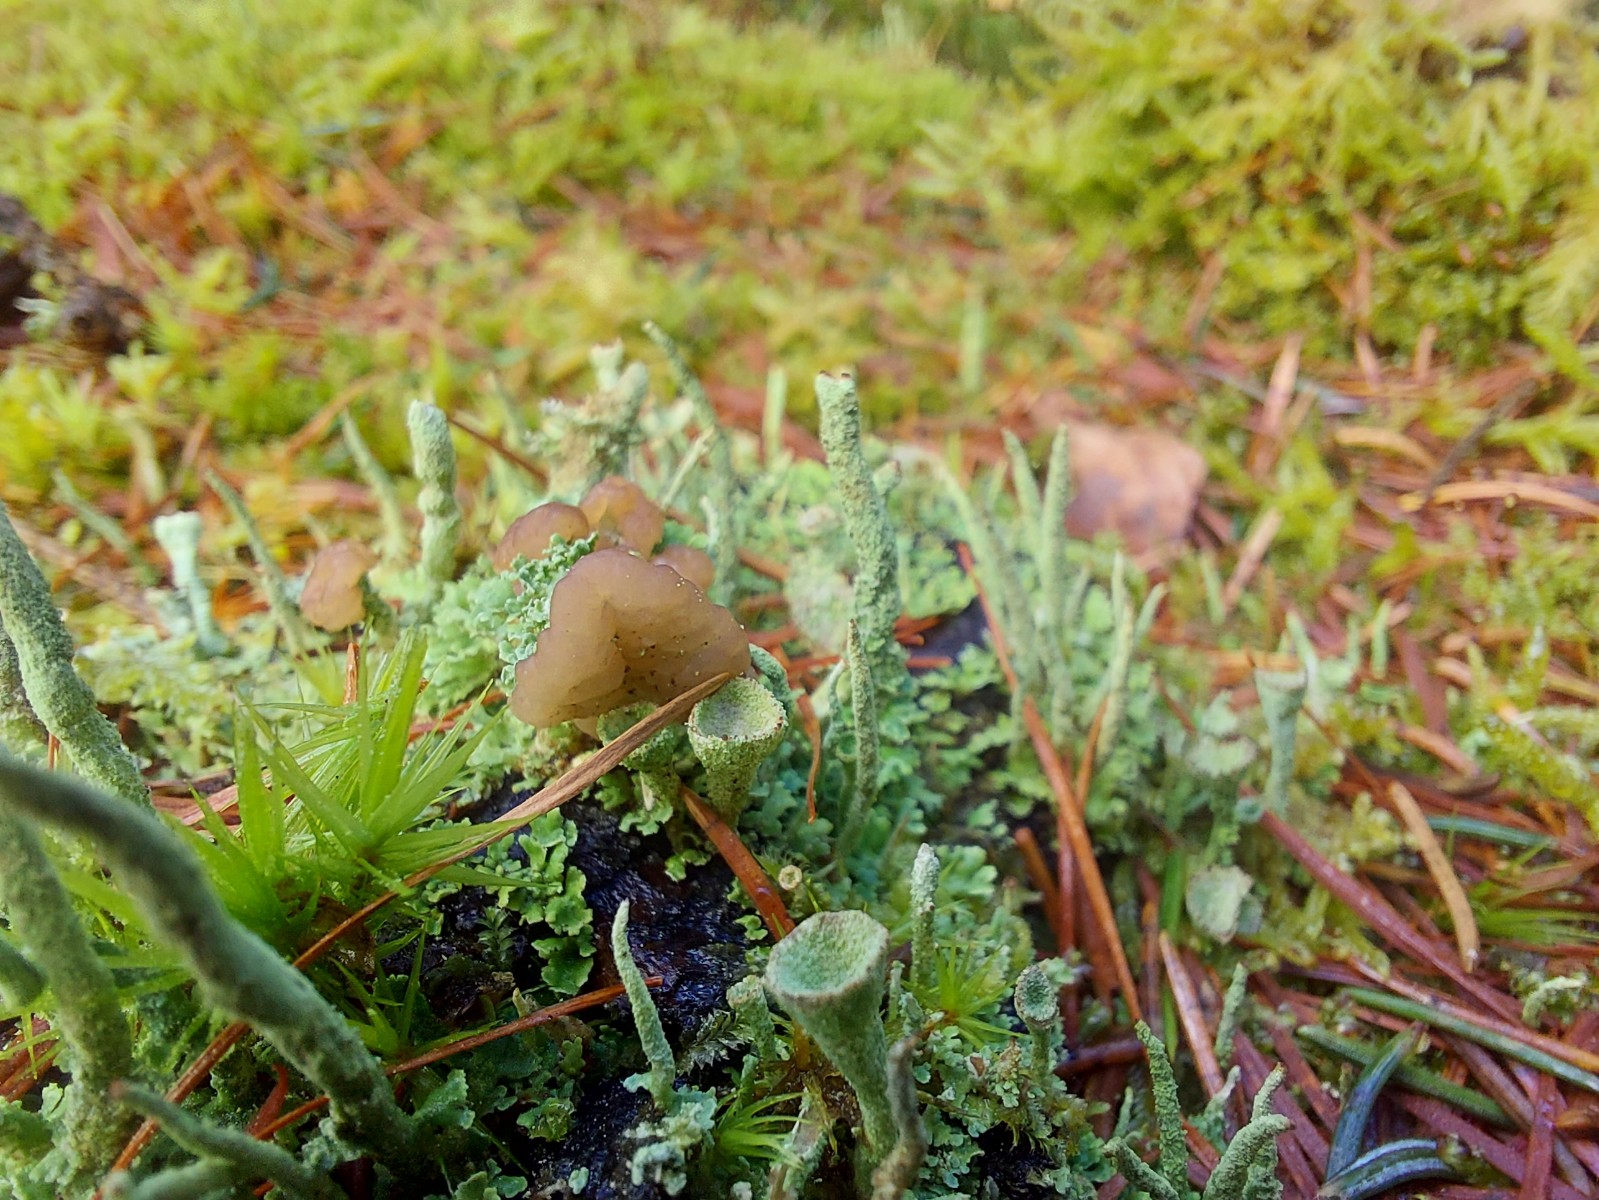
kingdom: Fungi
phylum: Ascomycota
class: Lecanoromycetes
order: Lecanorales
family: Cladoniaceae
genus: Cladonia
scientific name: Cladonia ramulosa
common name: kliddet bægerlav
